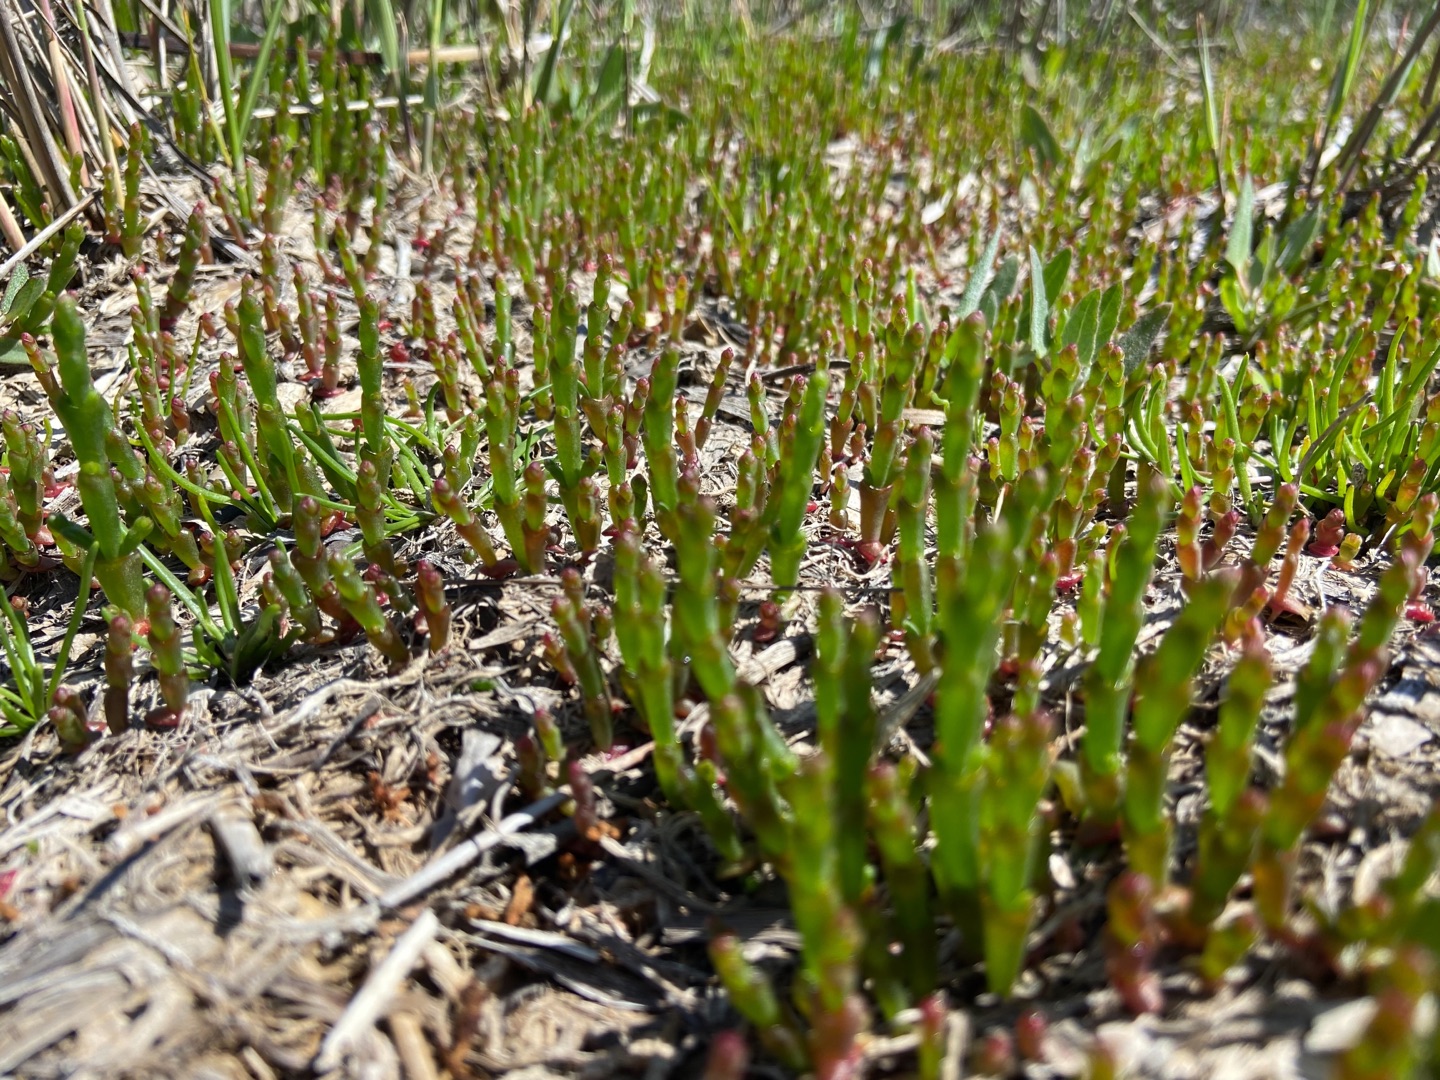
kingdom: Plantae
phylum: Tracheophyta
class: Magnoliopsida
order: Caryophyllales
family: Amaranthaceae
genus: Salicornia
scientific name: Salicornia europaea
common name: Almindelig salturt
